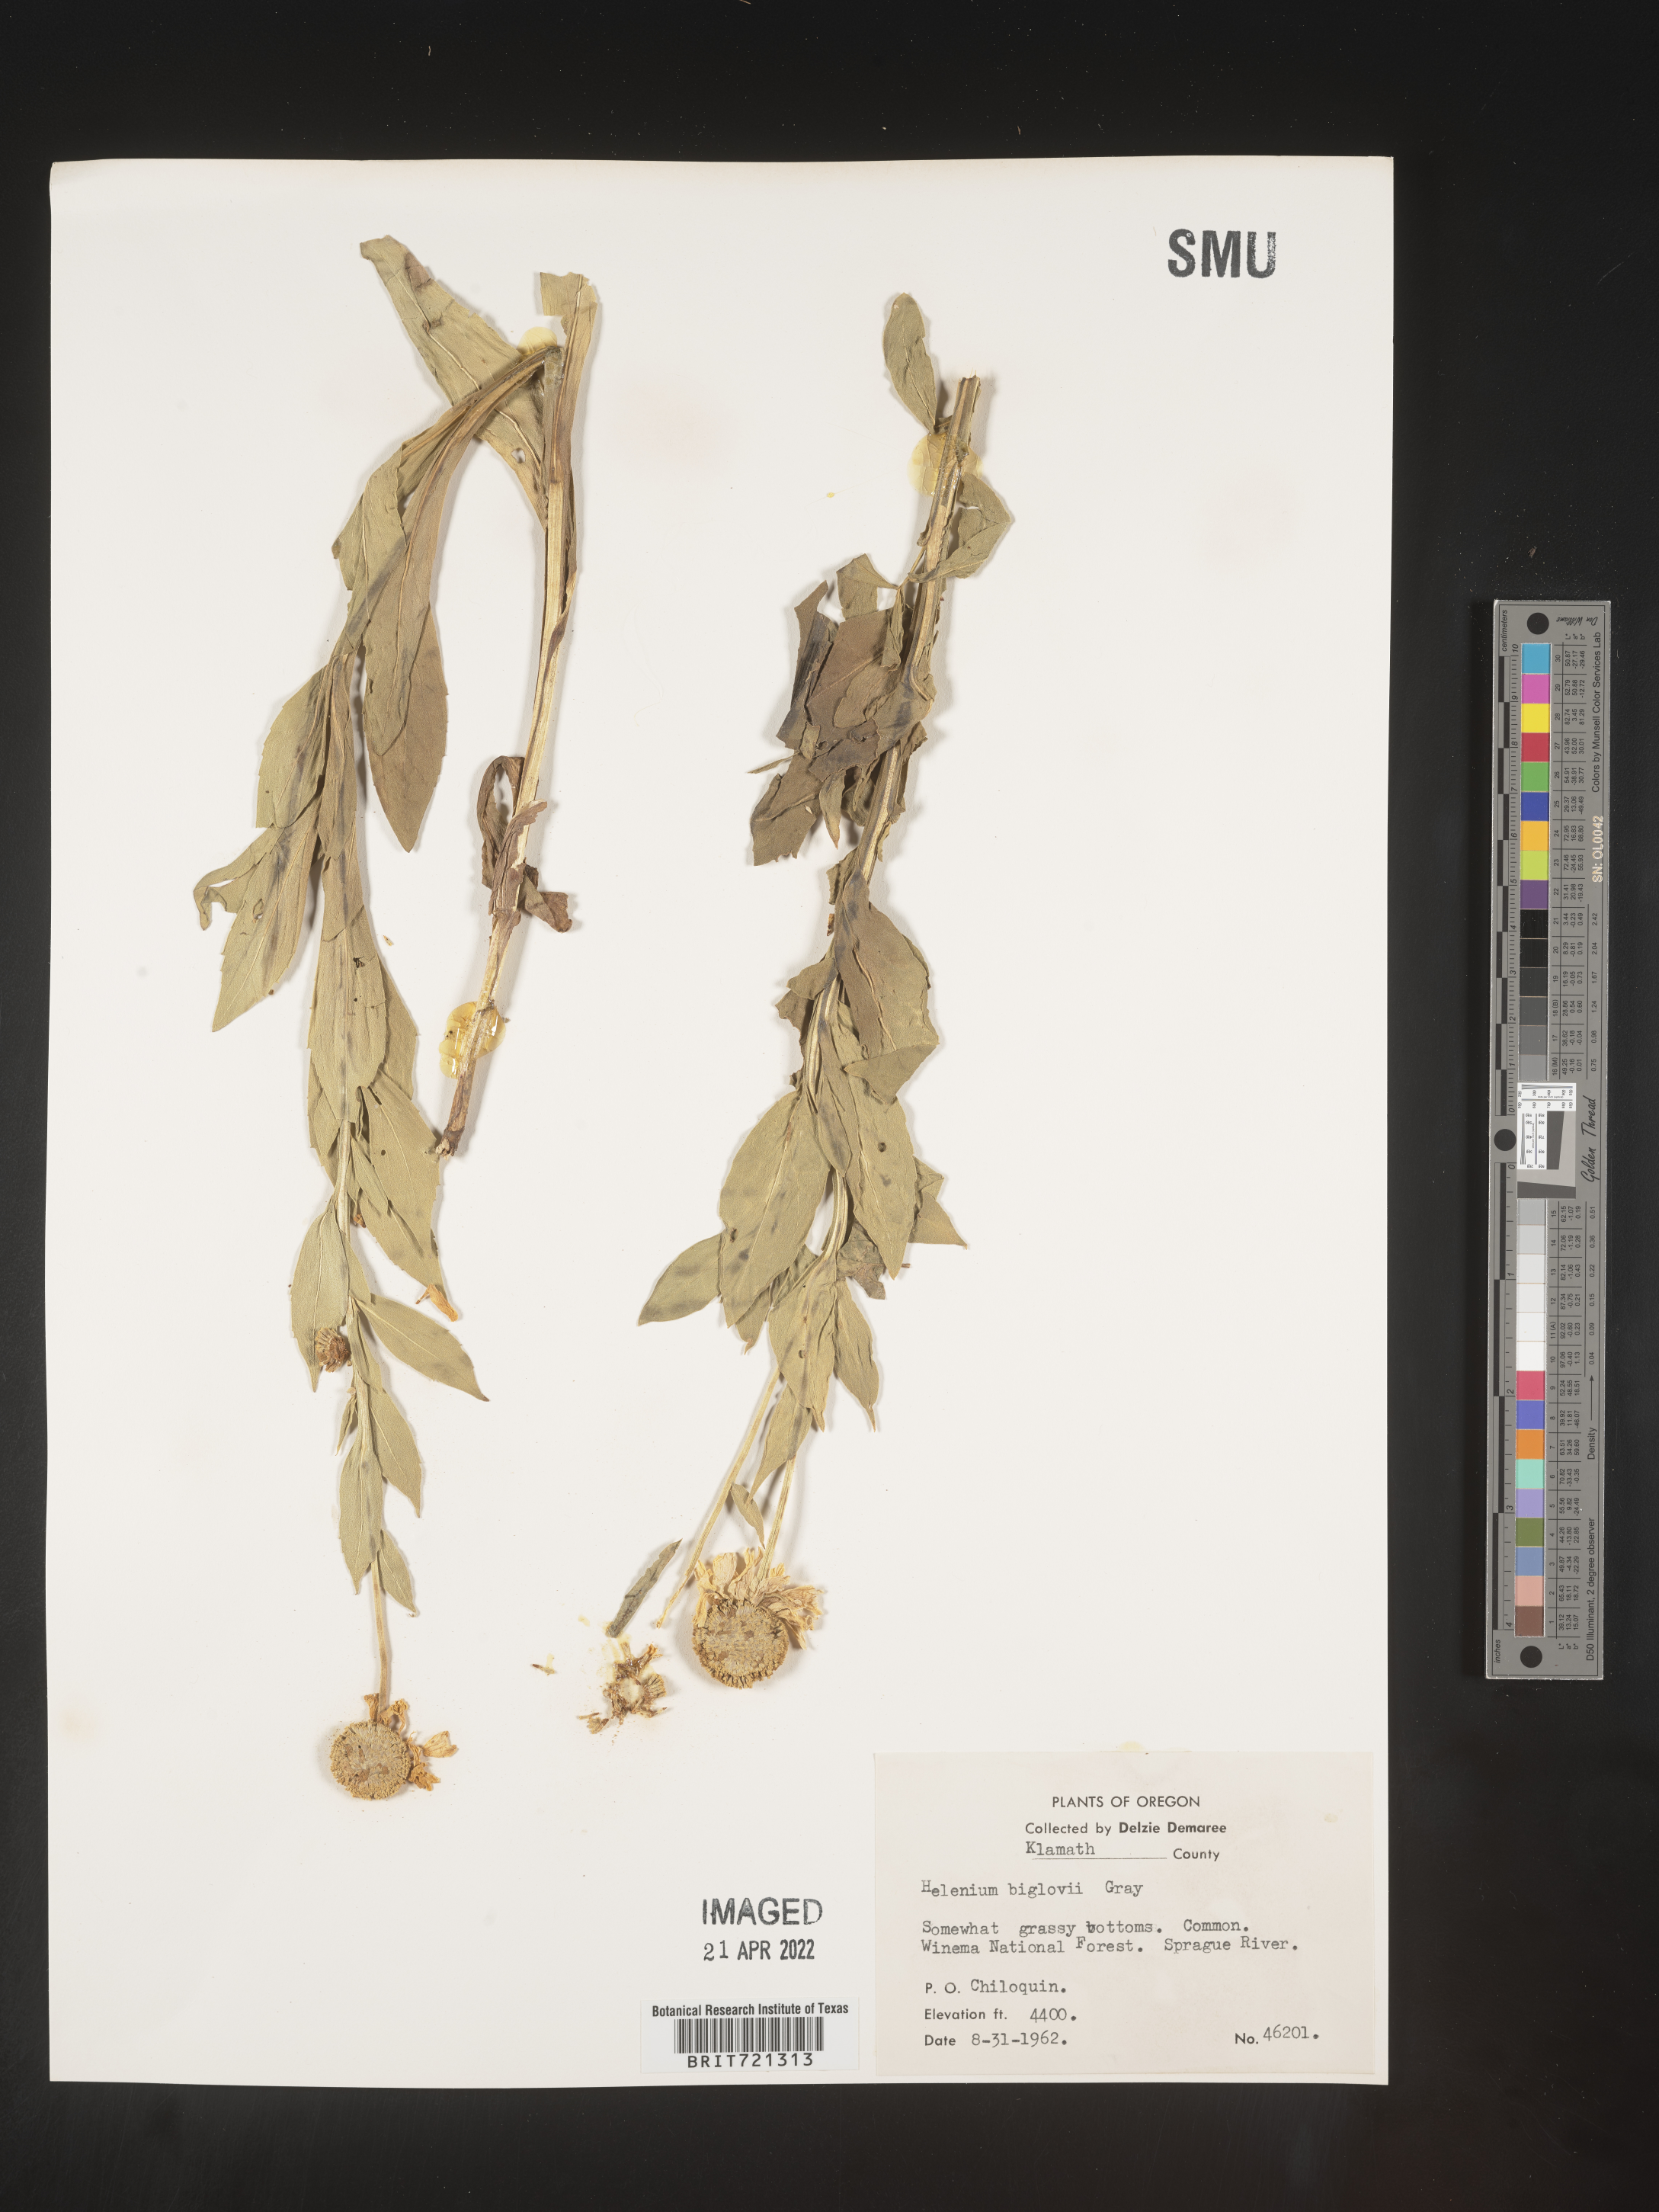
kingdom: Plantae
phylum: Tracheophyta
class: Magnoliopsida
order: Asterales
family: Asteraceae
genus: Helenium
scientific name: Helenium
